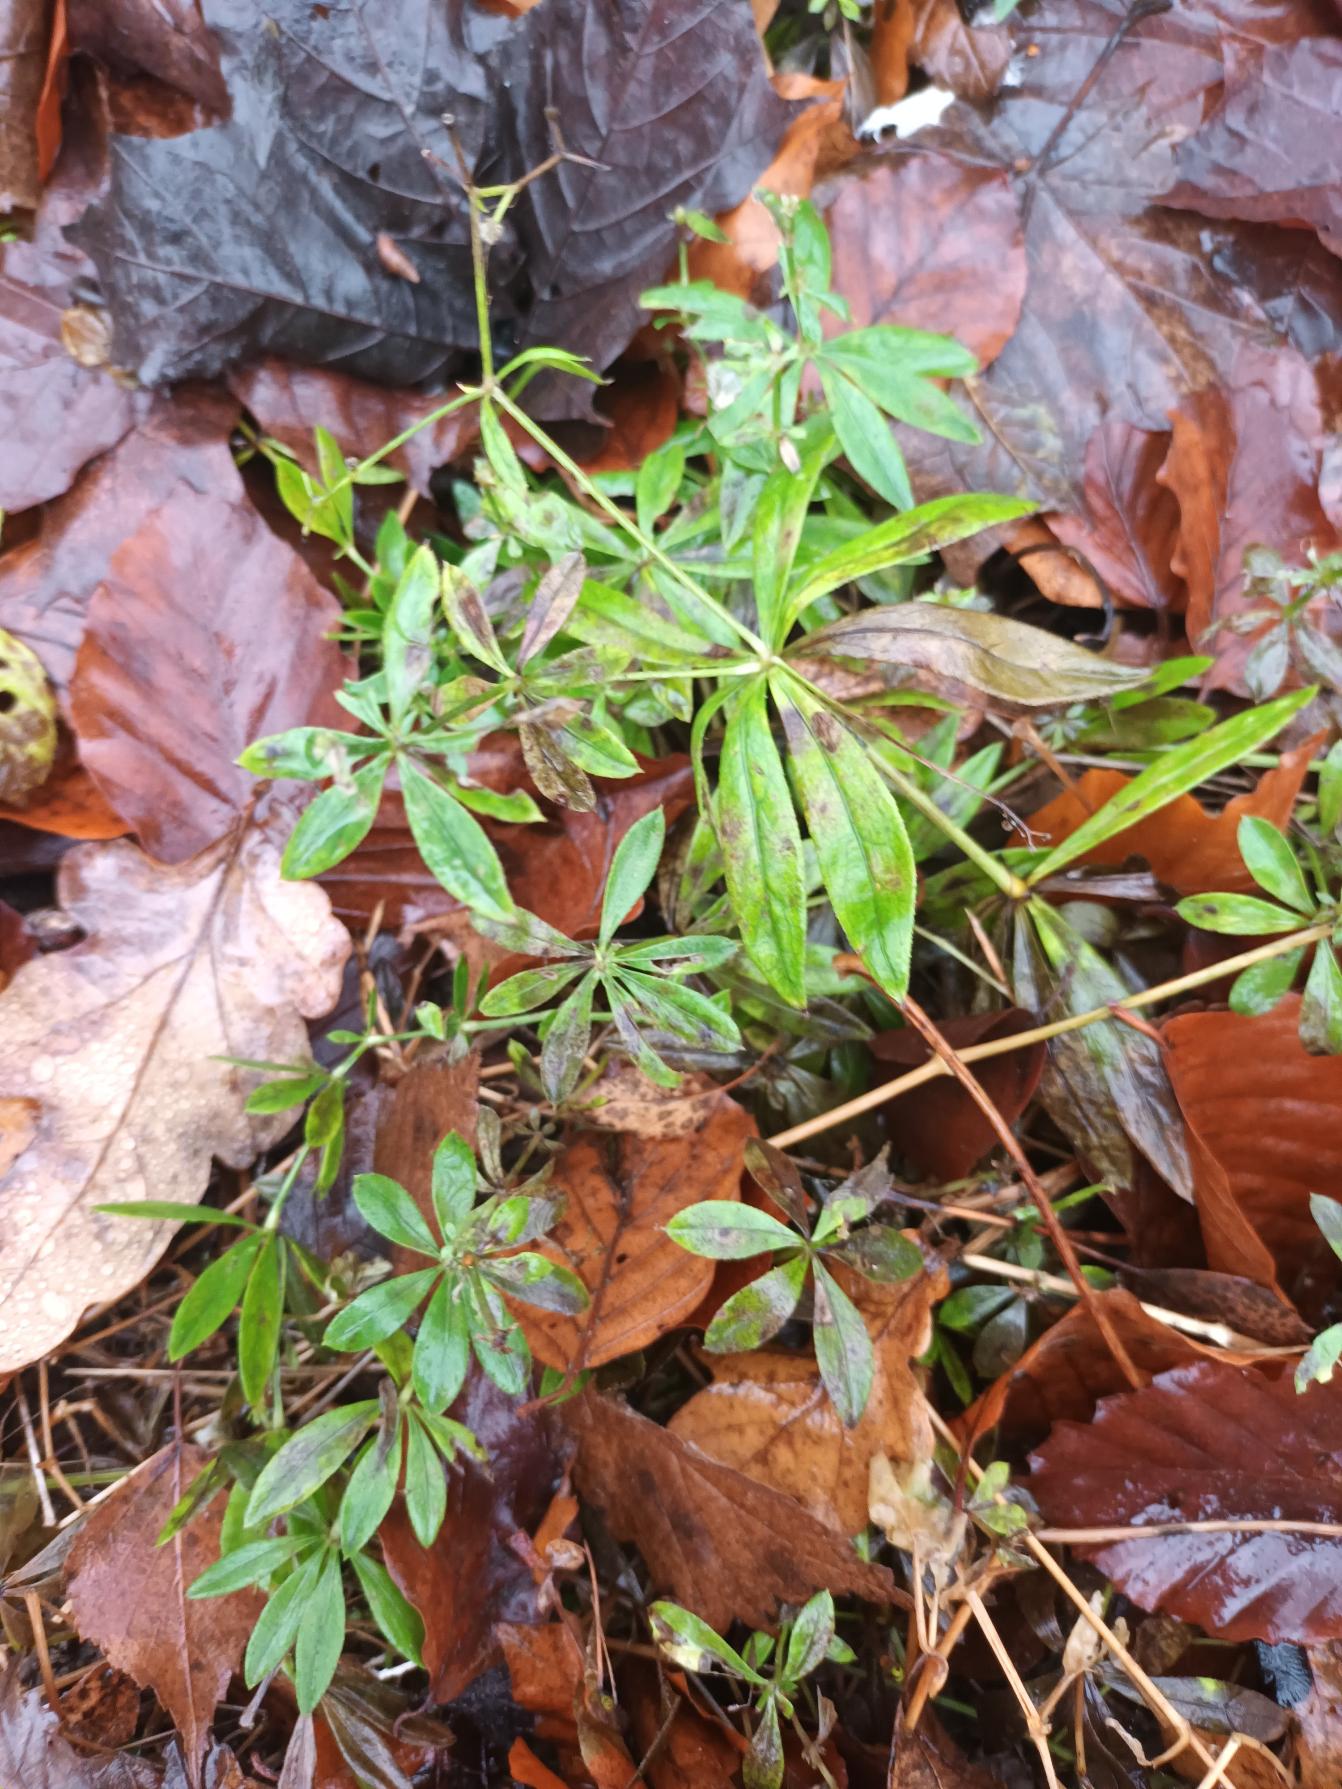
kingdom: Plantae
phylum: Tracheophyta
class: Magnoliopsida
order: Gentianales
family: Rubiaceae
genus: Galium
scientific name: Galium odoratum
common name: Skovmærke
